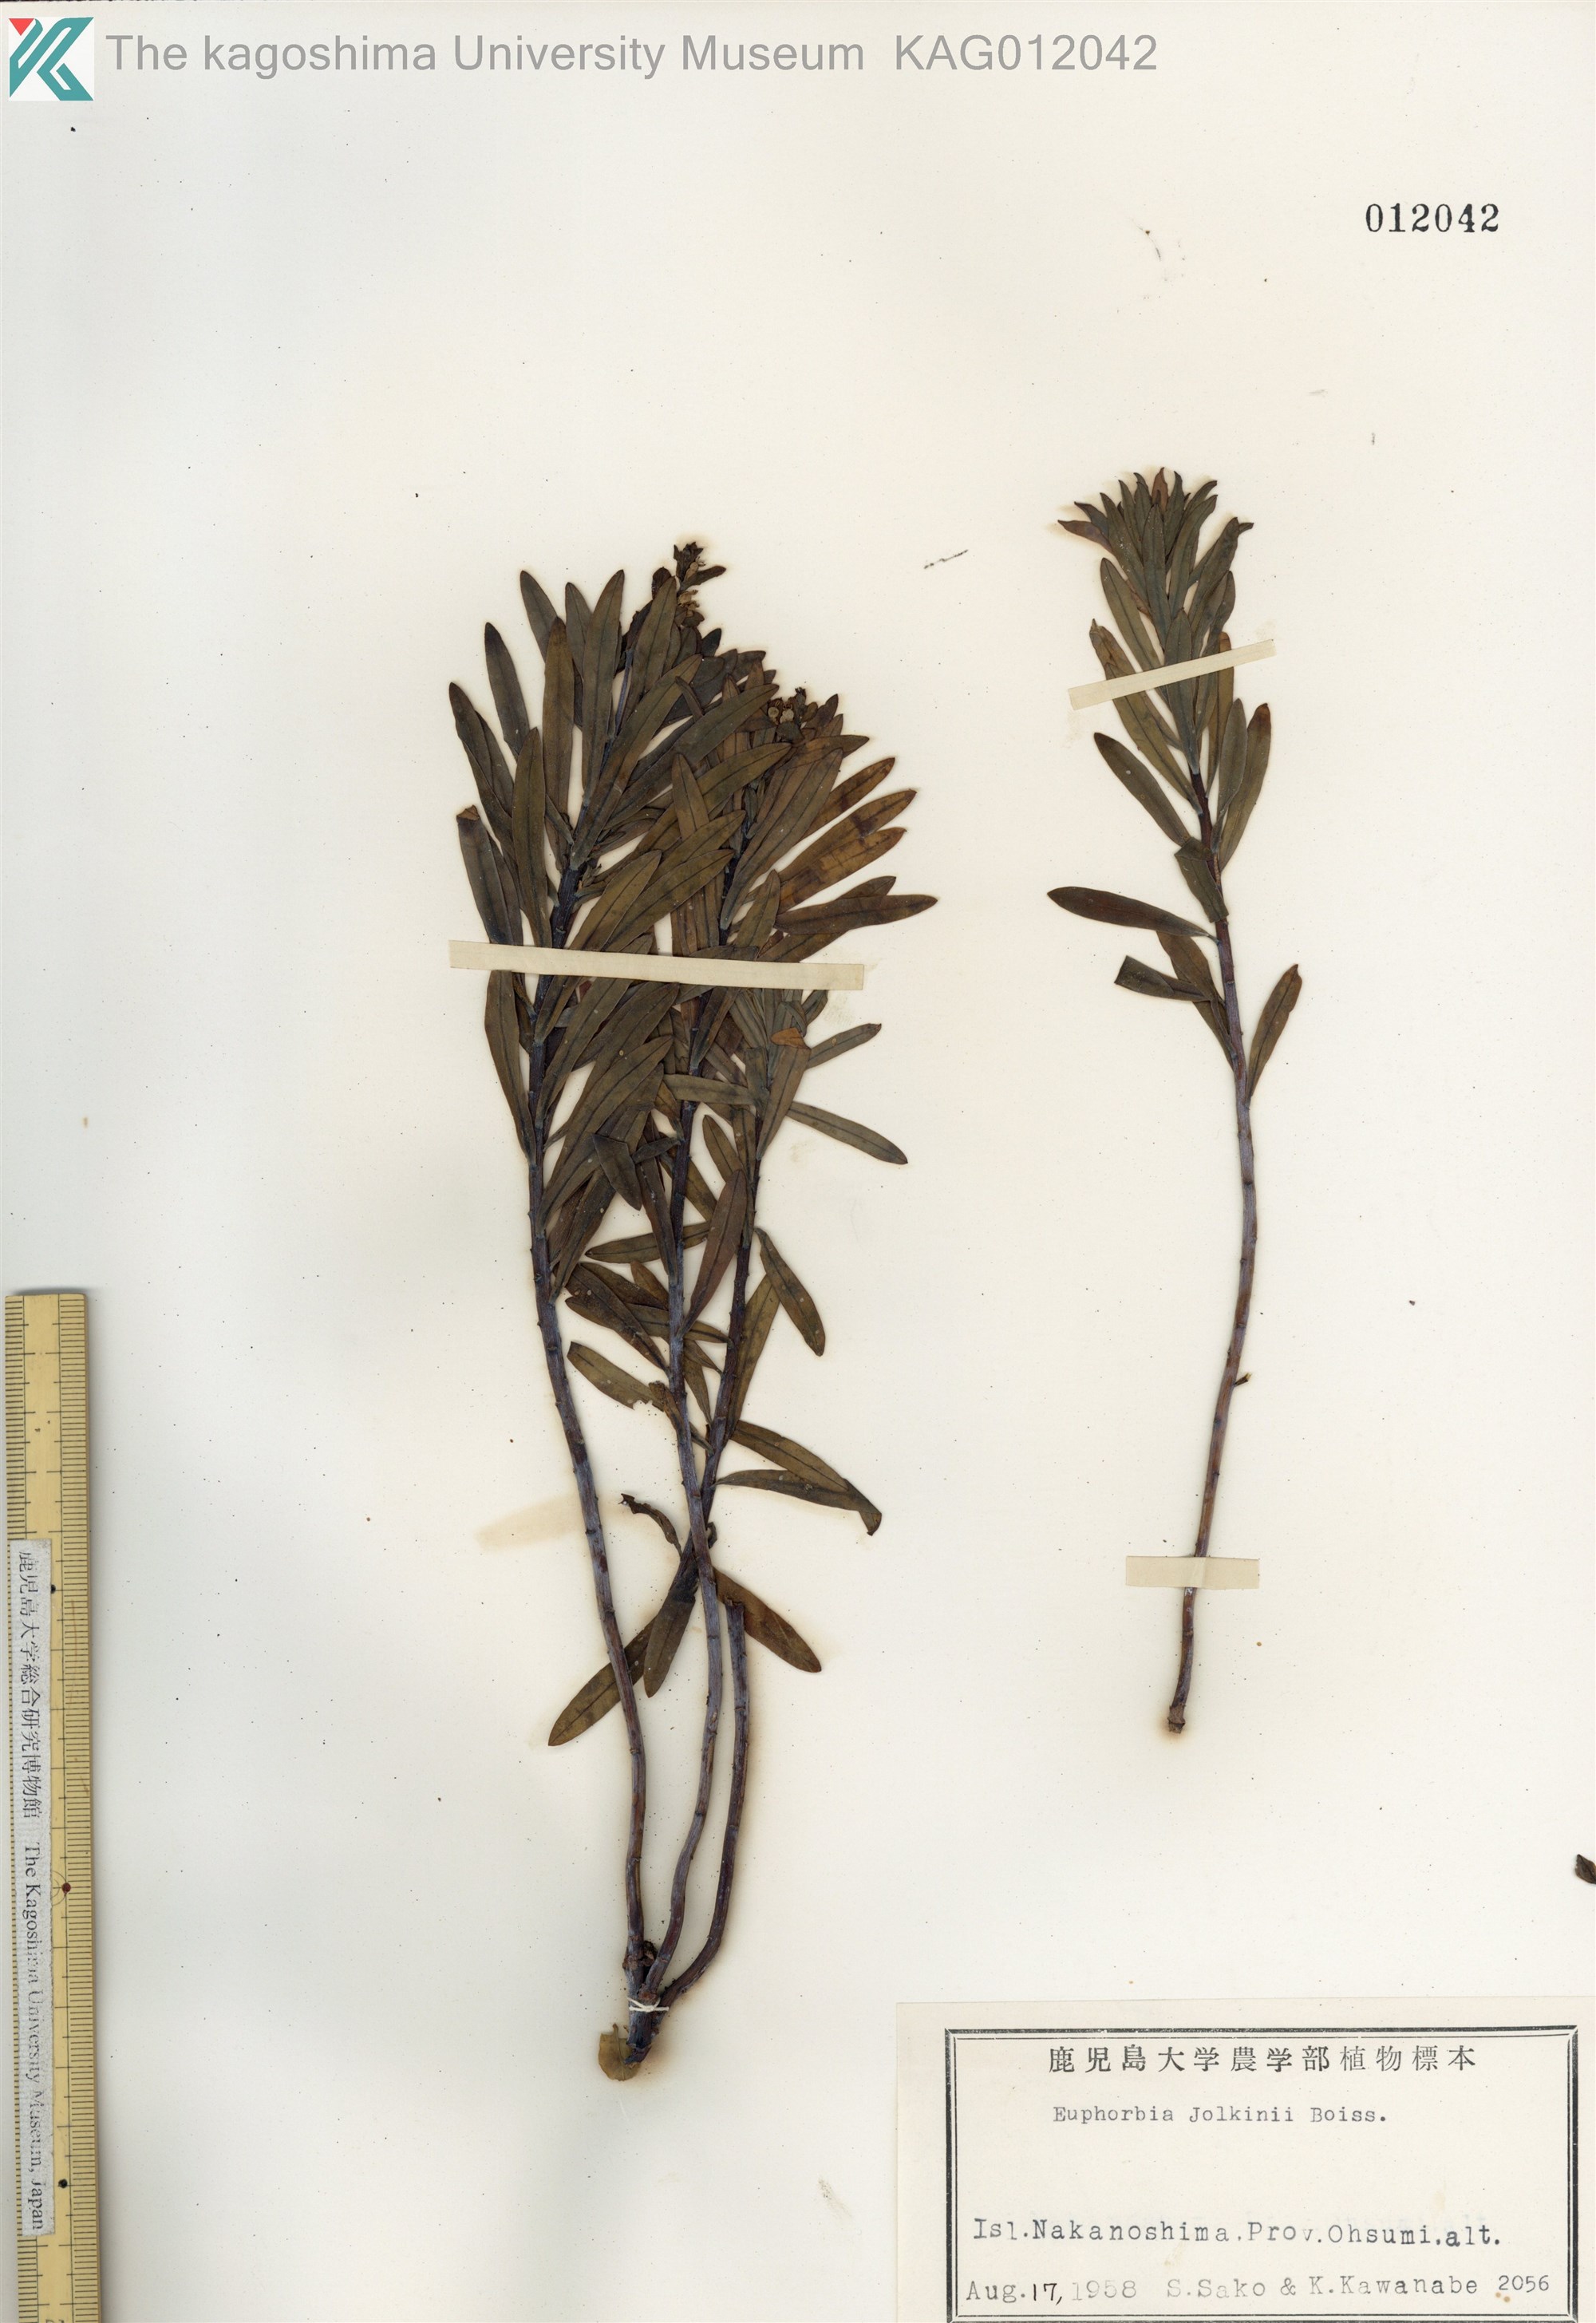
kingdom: Plantae
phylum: Tracheophyta
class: Magnoliopsida
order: Malpighiales
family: Euphorbiaceae
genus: Euphorbia
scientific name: Euphorbia jolkinii
